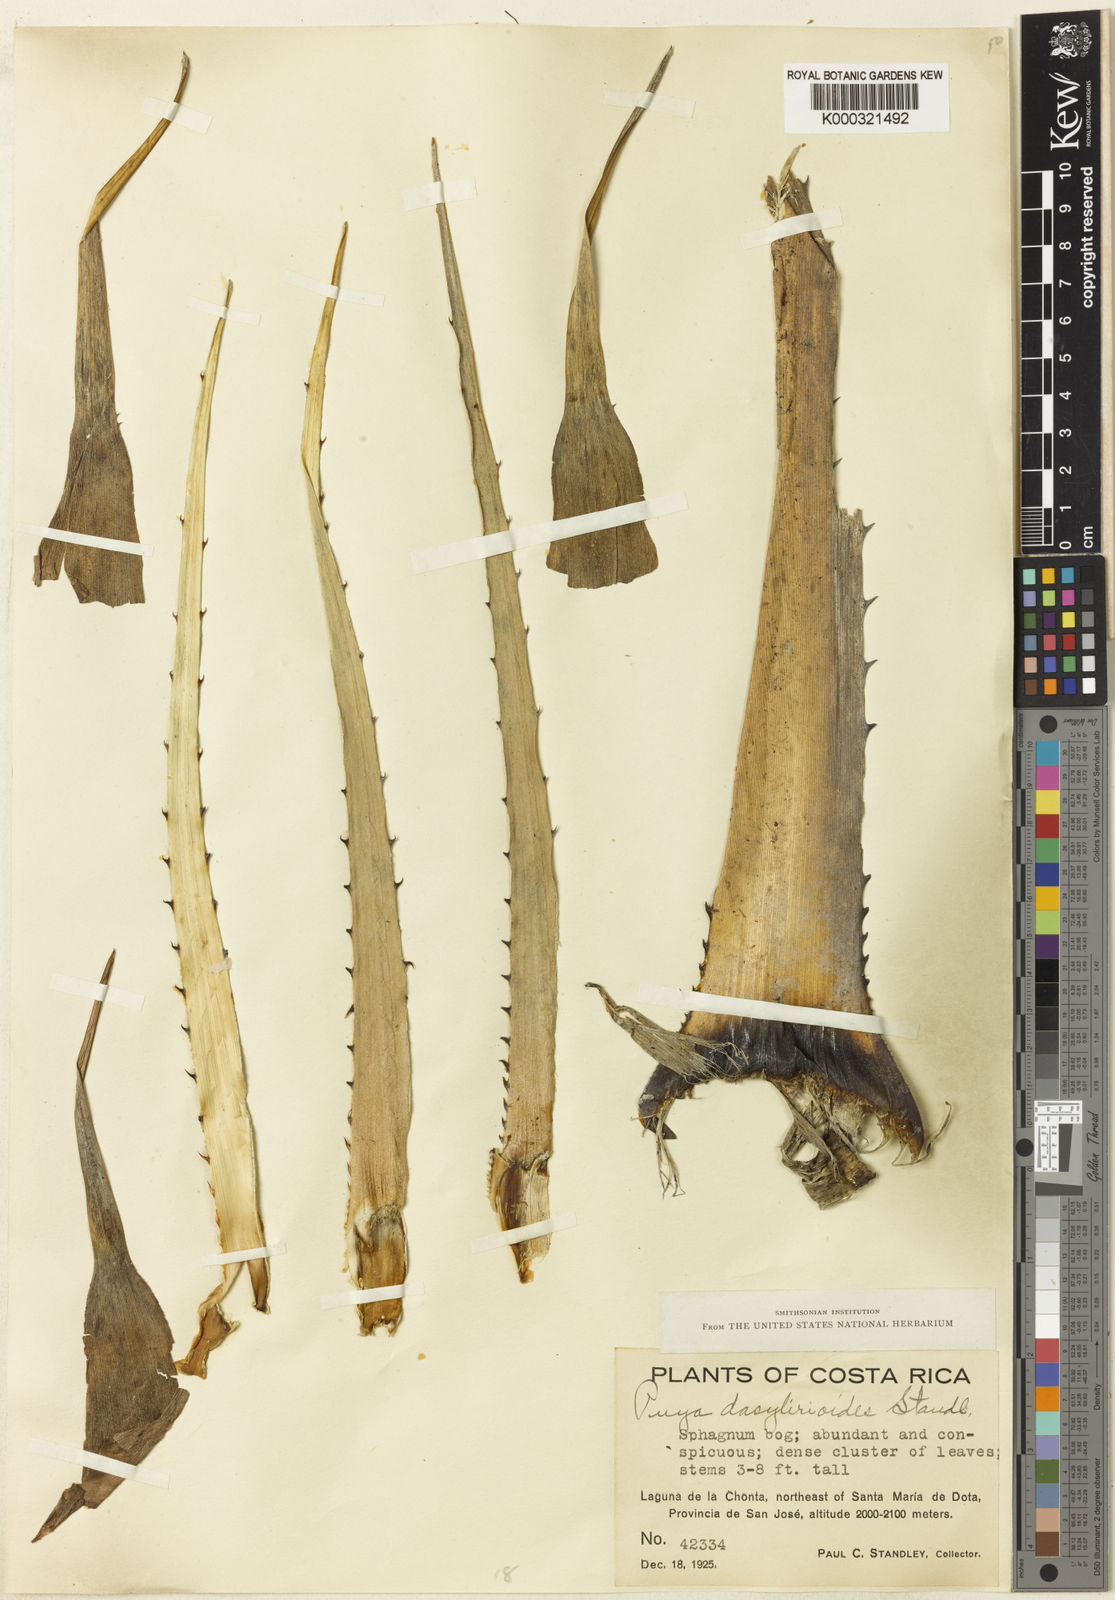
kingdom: Plantae
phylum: Tracheophyta
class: Liliopsida
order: Poales
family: Bromeliaceae
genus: Puya
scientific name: Puya dasylirioides
